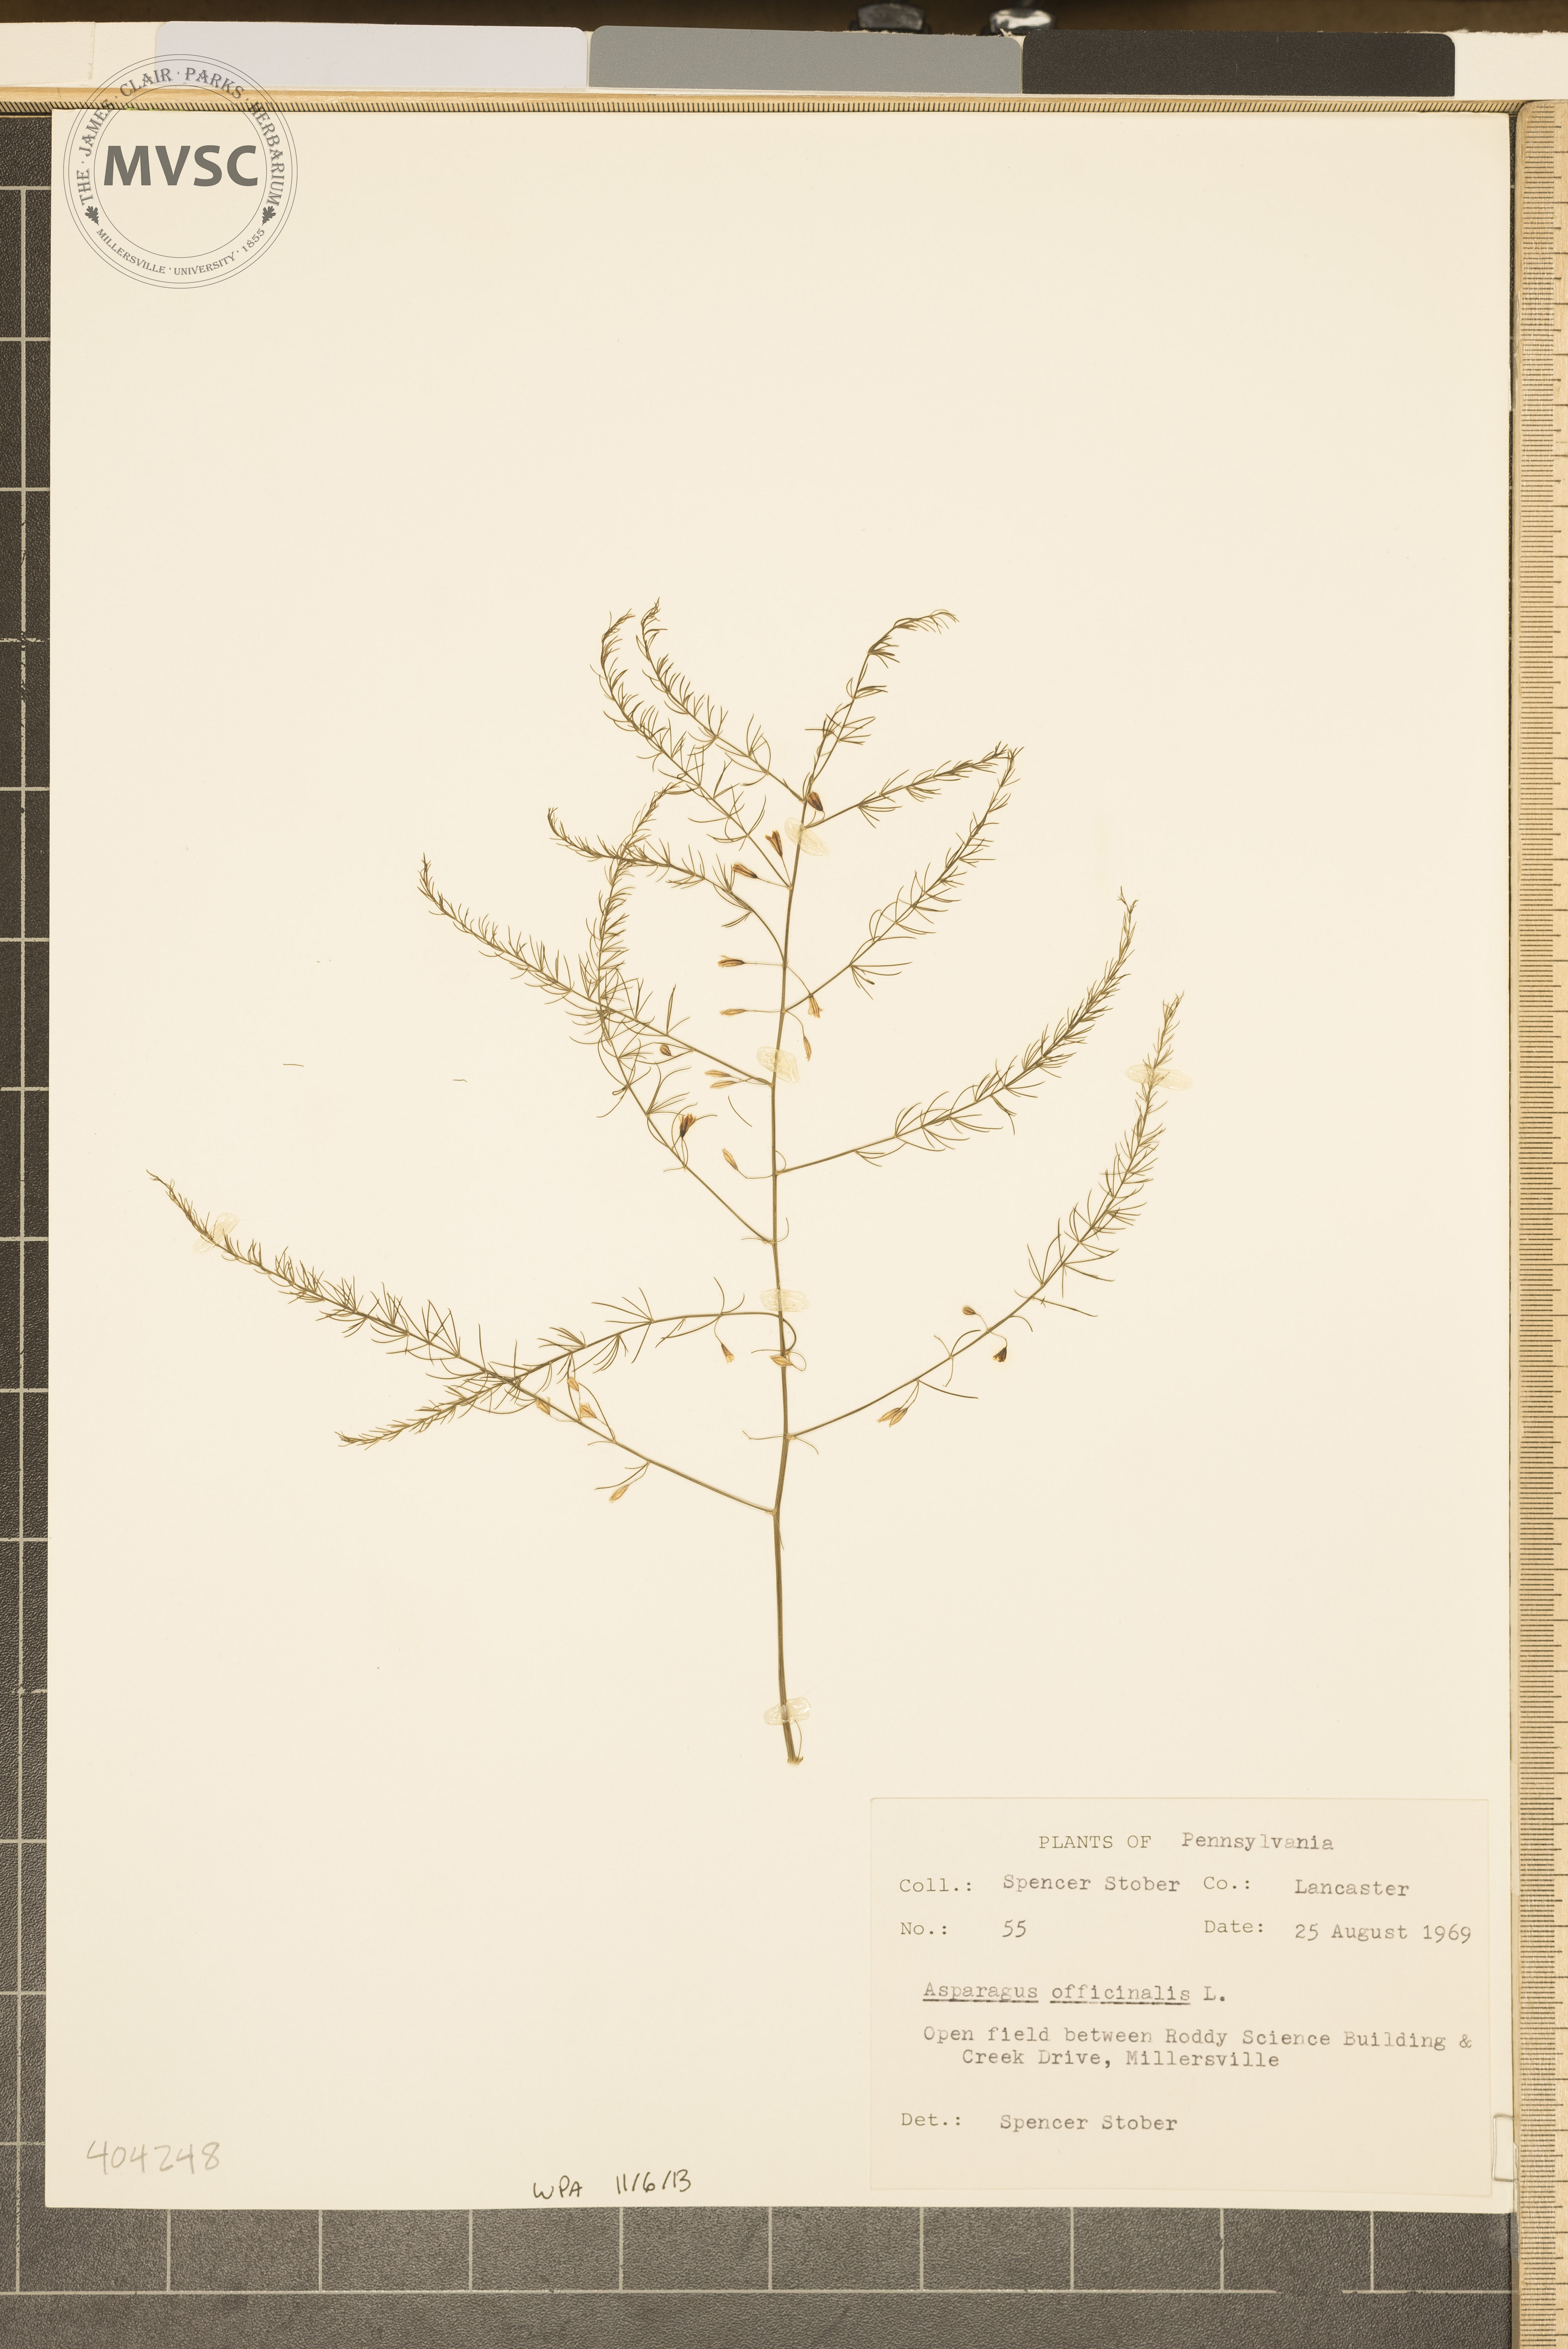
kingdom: Plantae
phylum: Tracheophyta
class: Liliopsida
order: Asparagales
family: Asparagaceae
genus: Asparagus
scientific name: Asparagus officinalis
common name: Garden asparagus
